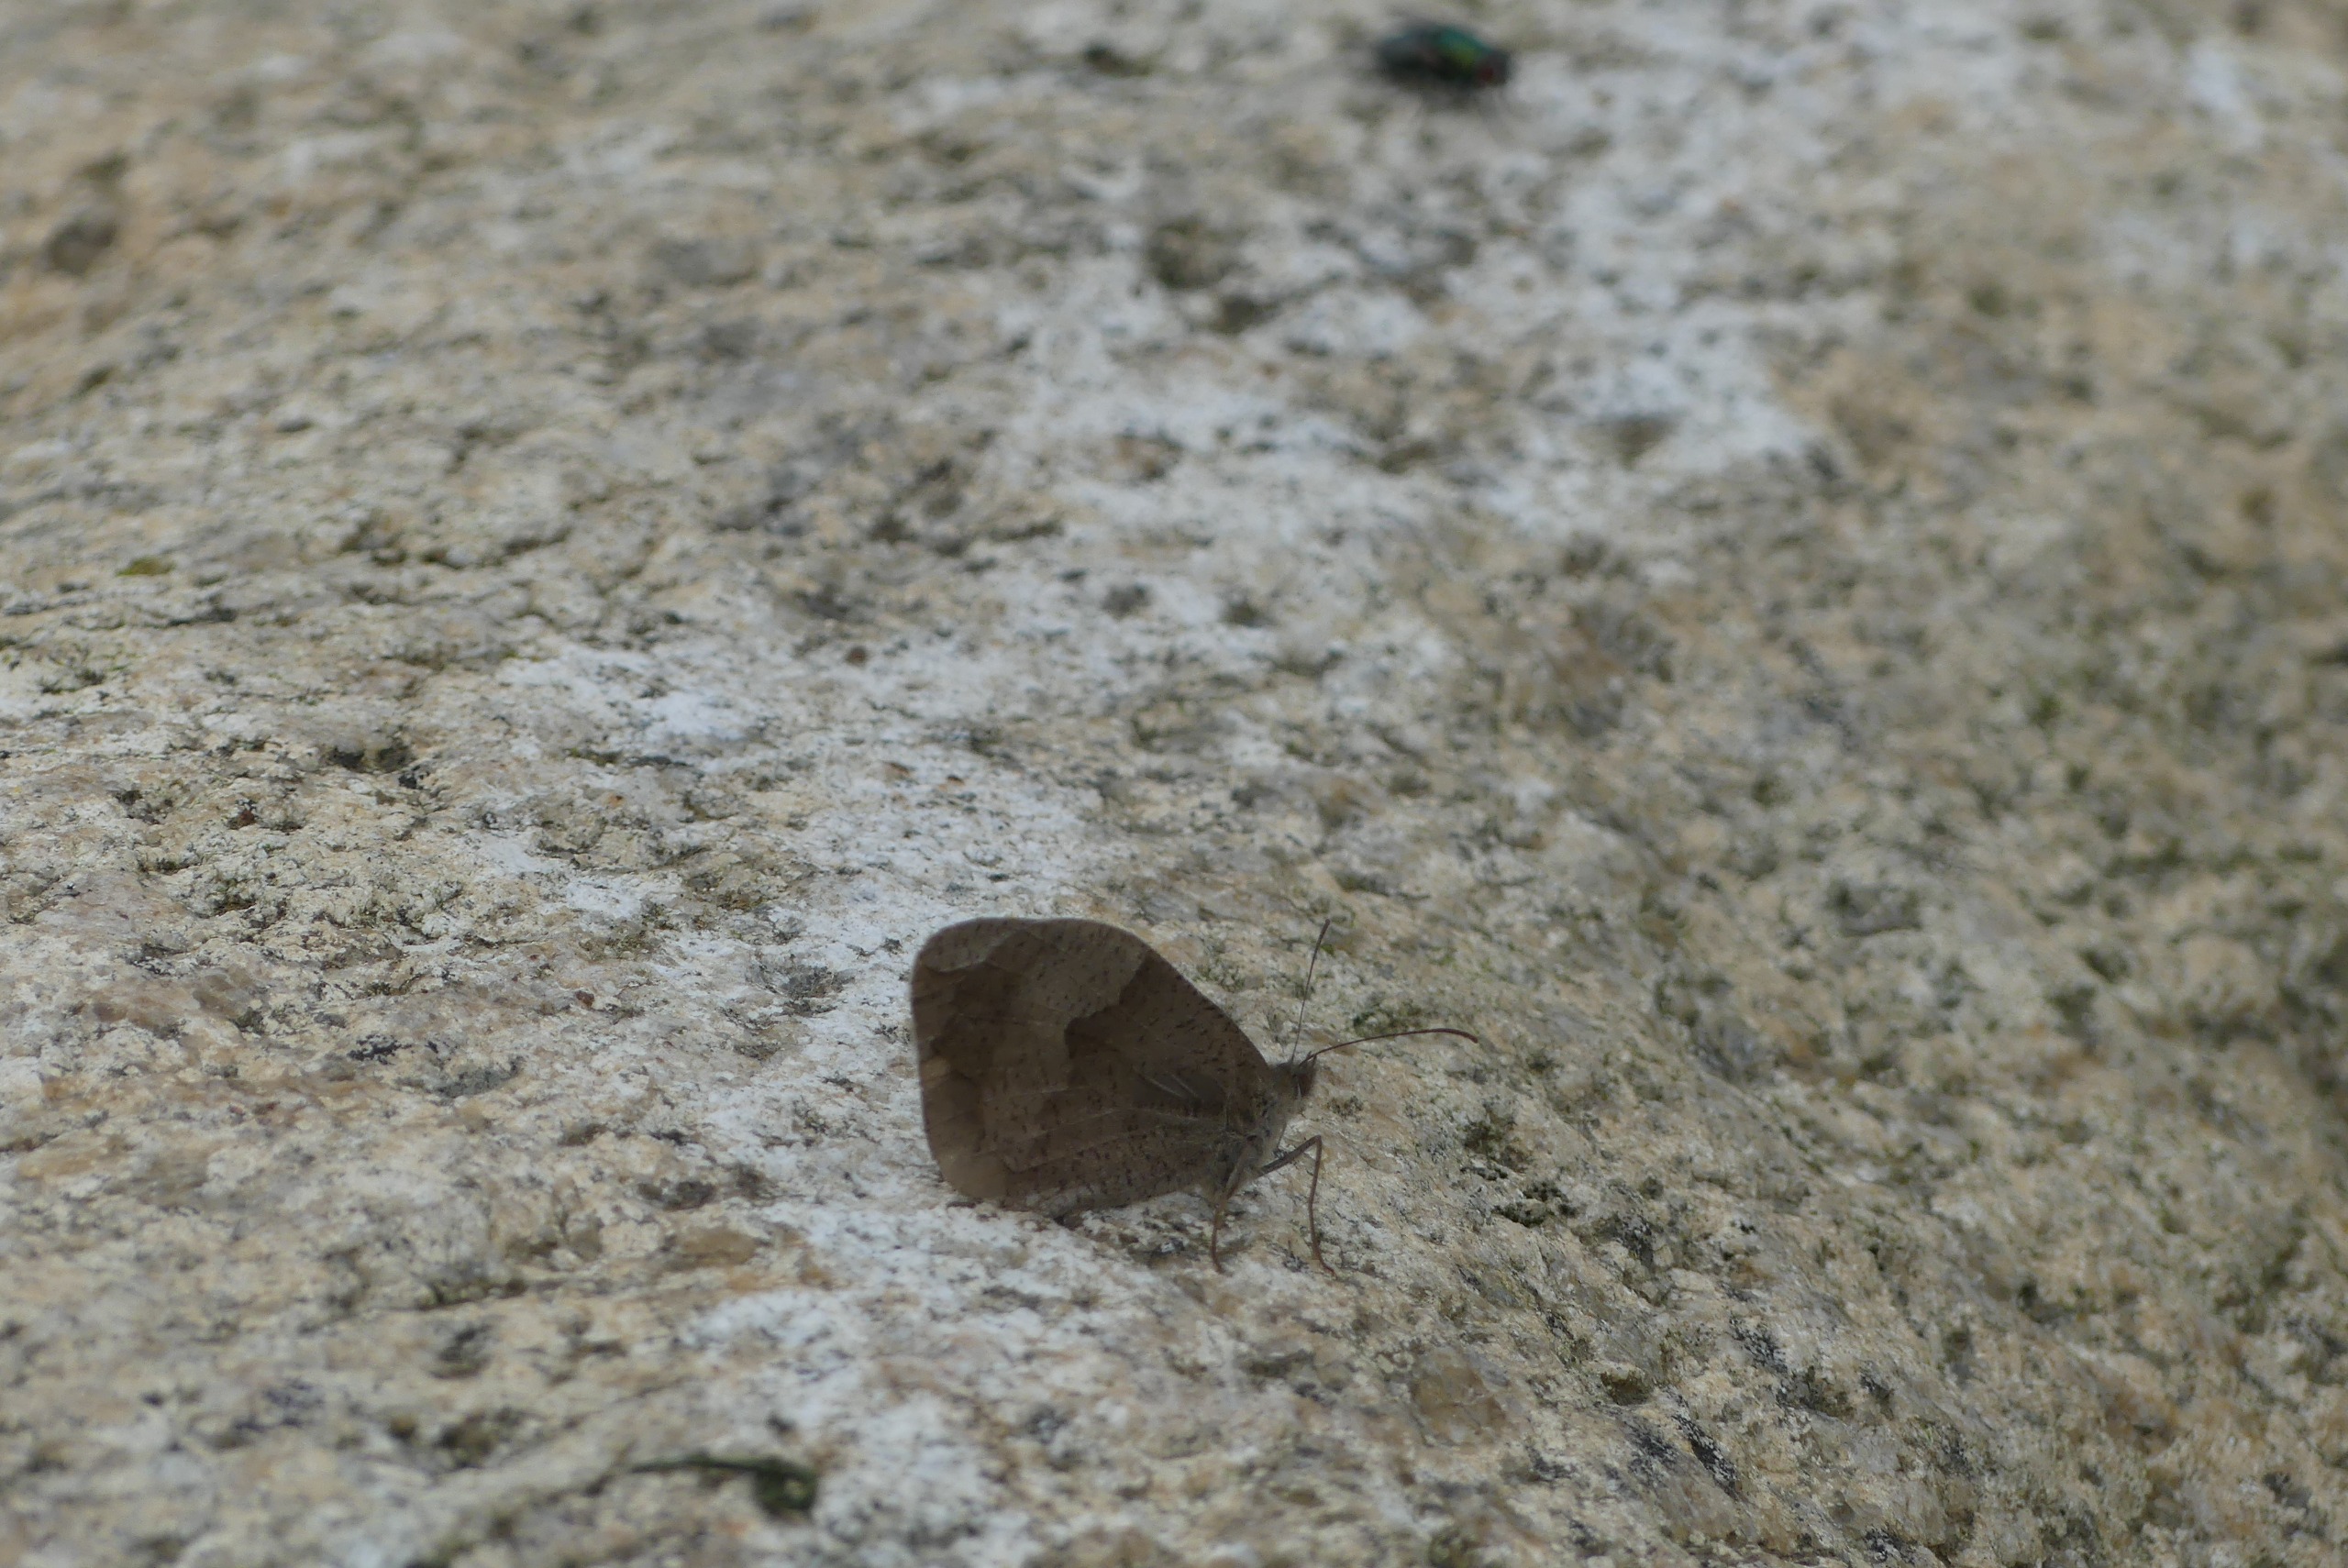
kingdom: Animalia
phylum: Arthropoda
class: Insecta
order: Lepidoptera
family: Nymphalidae
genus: Maniola
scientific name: Maniola jurtina
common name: Græsrandøje
